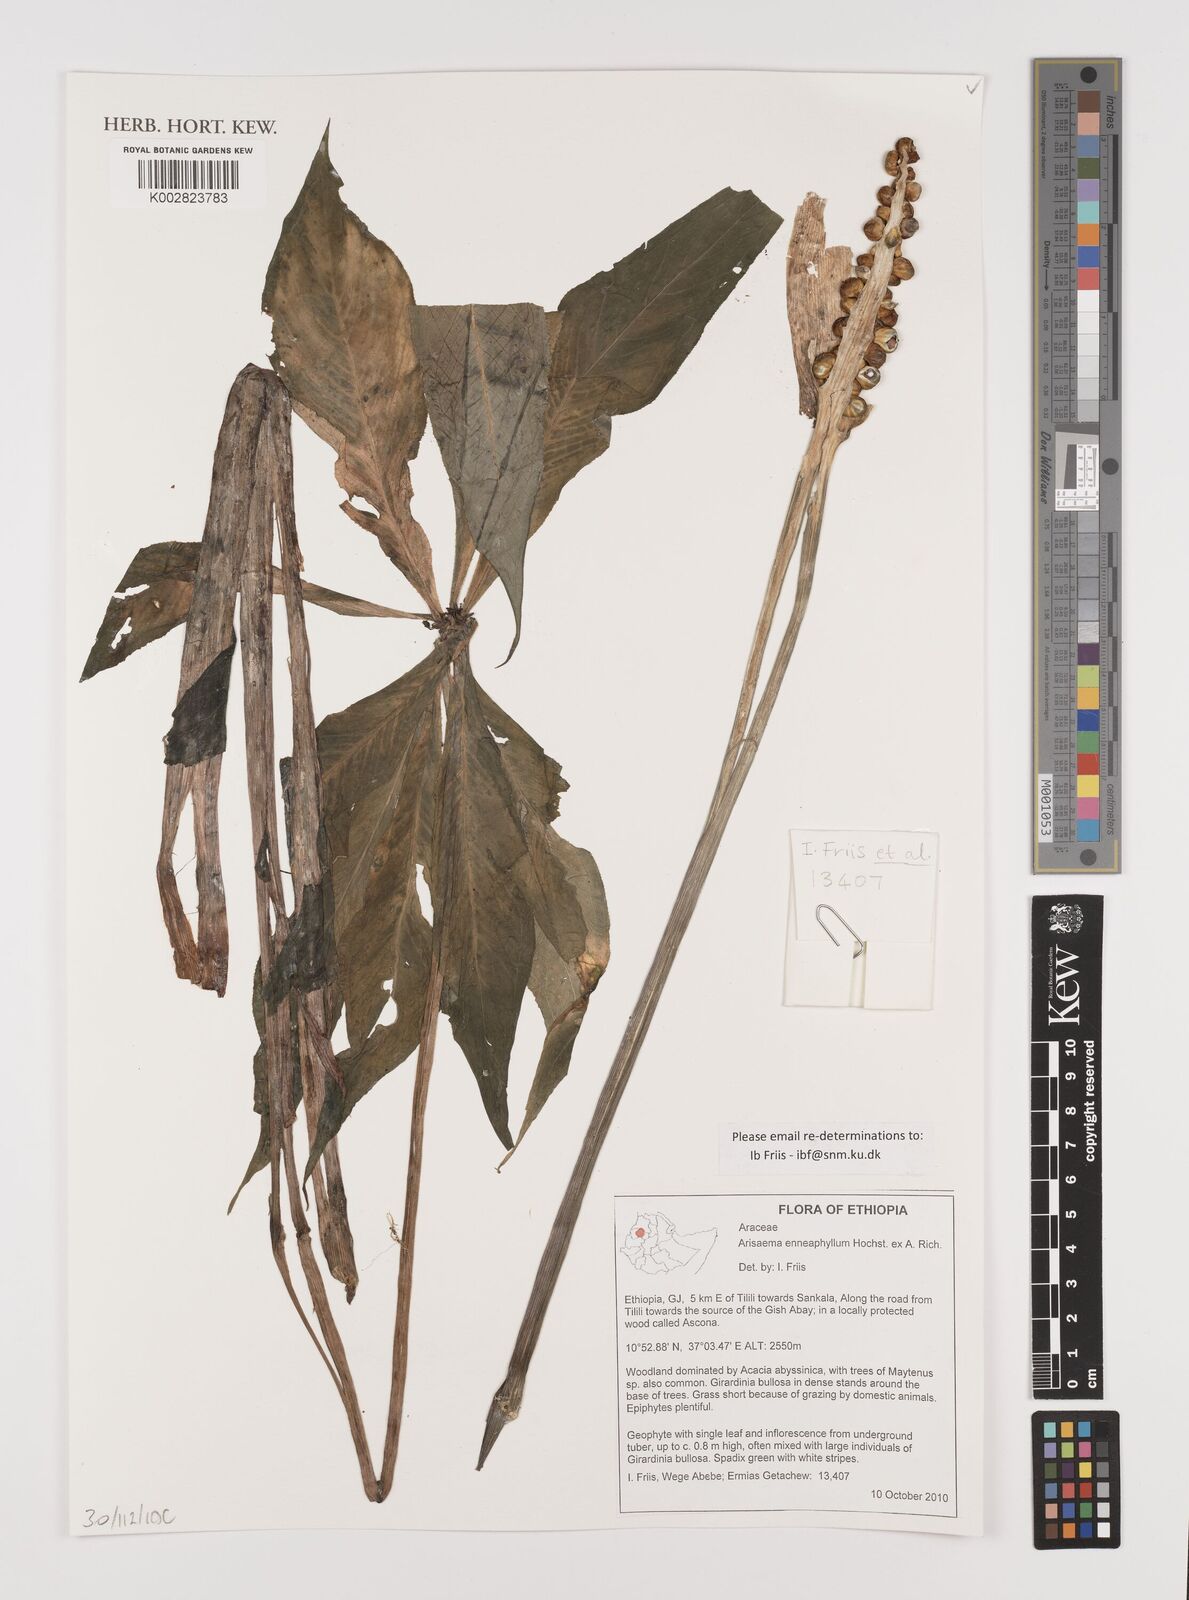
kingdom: Plantae
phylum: Tracheophyta
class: Liliopsida
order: Alismatales
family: Araceae
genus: Arisaema
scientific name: Arisaema enneaphyllum
